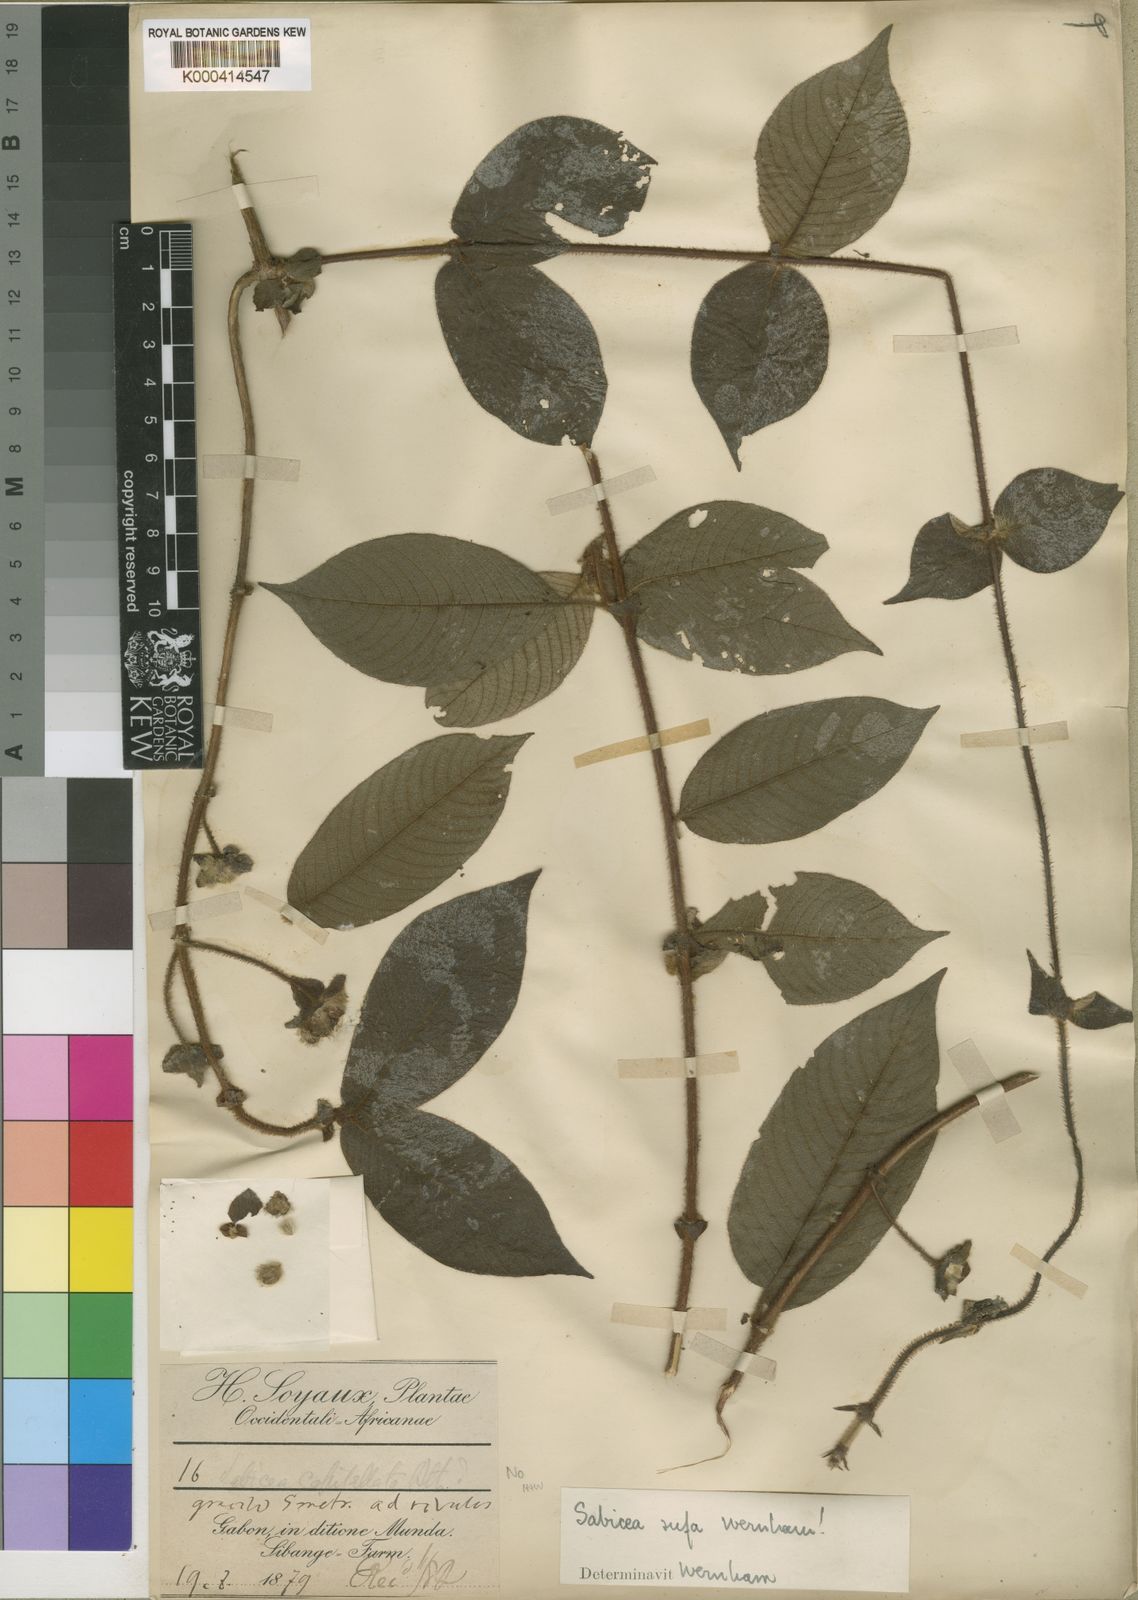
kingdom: Plantae
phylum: Tracheophyta
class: Magnoliopsida
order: Gentianales
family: Rubiaceae
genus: Sabicea
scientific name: Sabicea rufa
